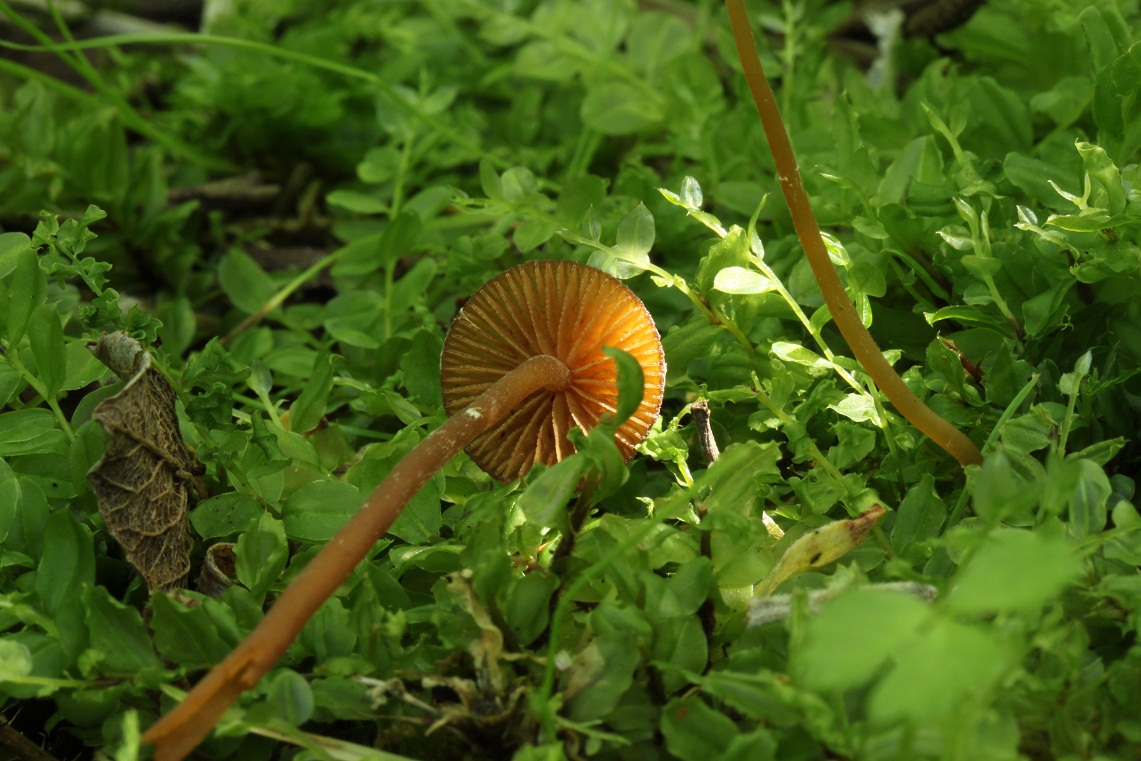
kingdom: Fungi
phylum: Basidiomycota
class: Agaricomycetes
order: Agaricales
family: Hymenogastraceae
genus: Galerina
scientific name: Galerina
